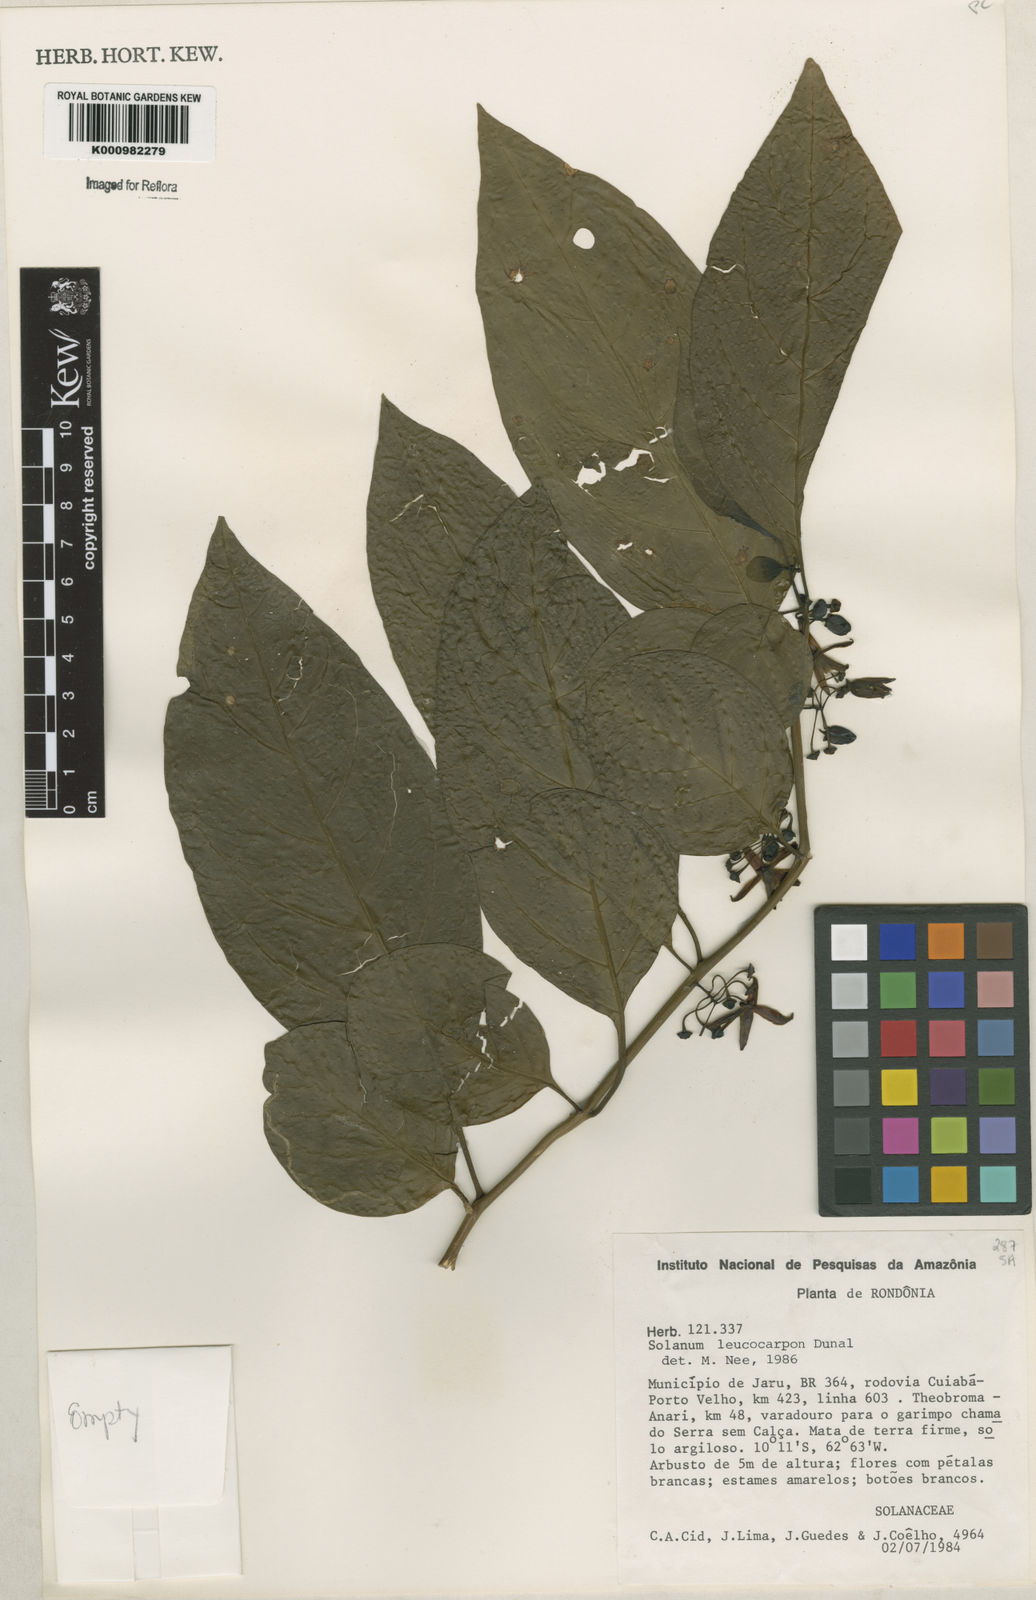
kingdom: Plantae
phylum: Tracheophyta
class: Magnoliopsida
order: Solanales
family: Solanaceae
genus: Solanum
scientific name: Solanum leucocarpon
